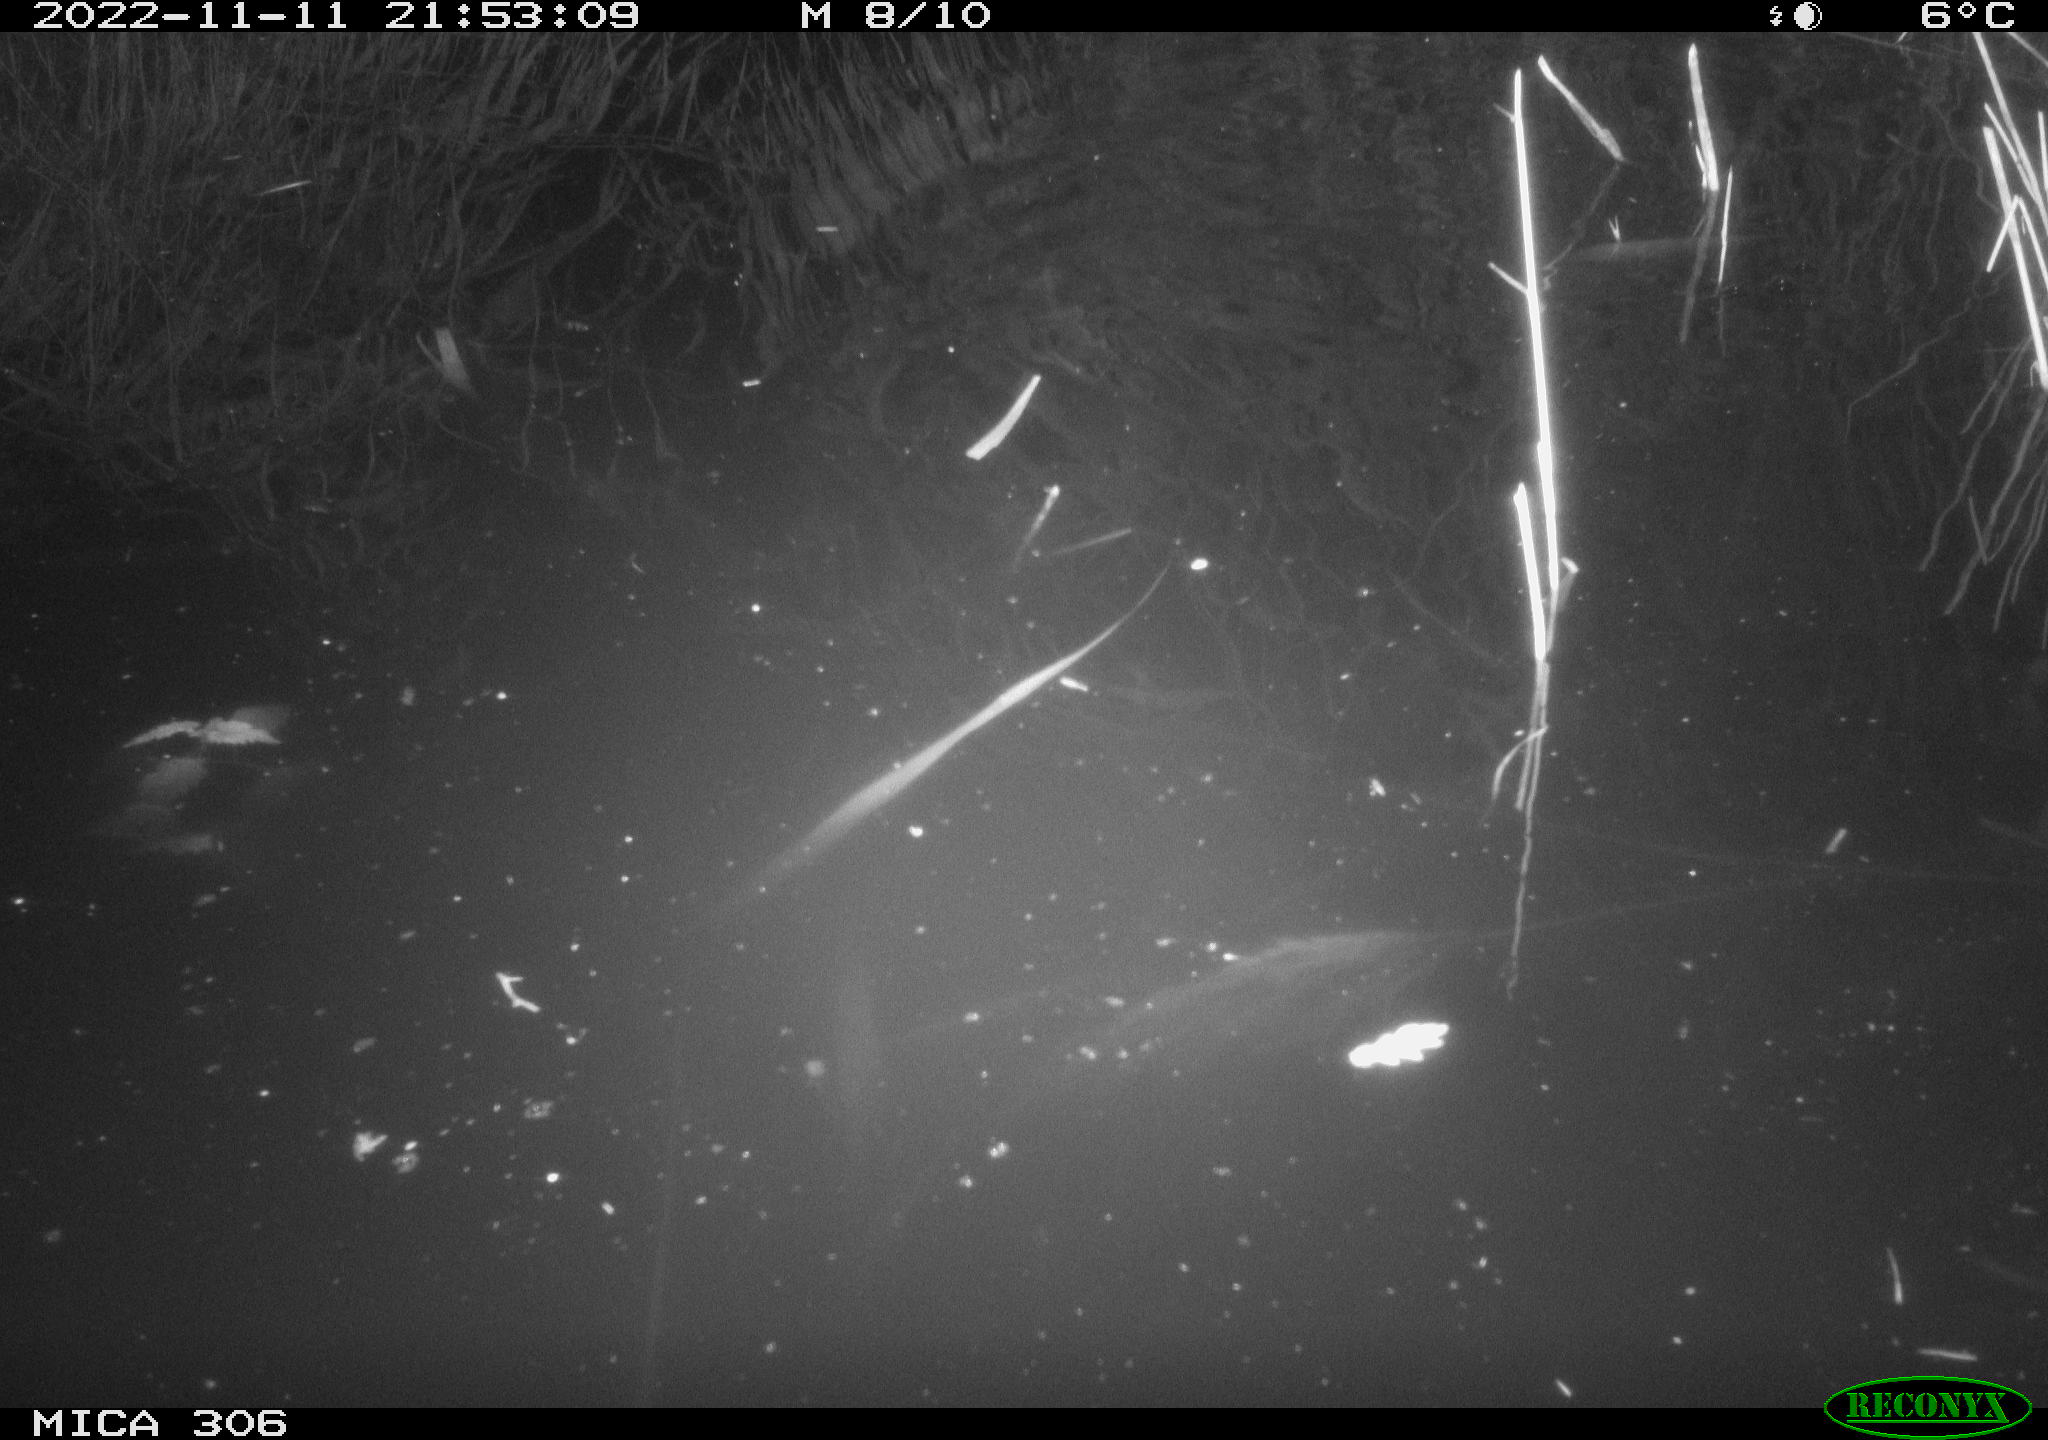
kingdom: Animalia
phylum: Chordata
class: Mammalia
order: Rodentia
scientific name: Rodentia
